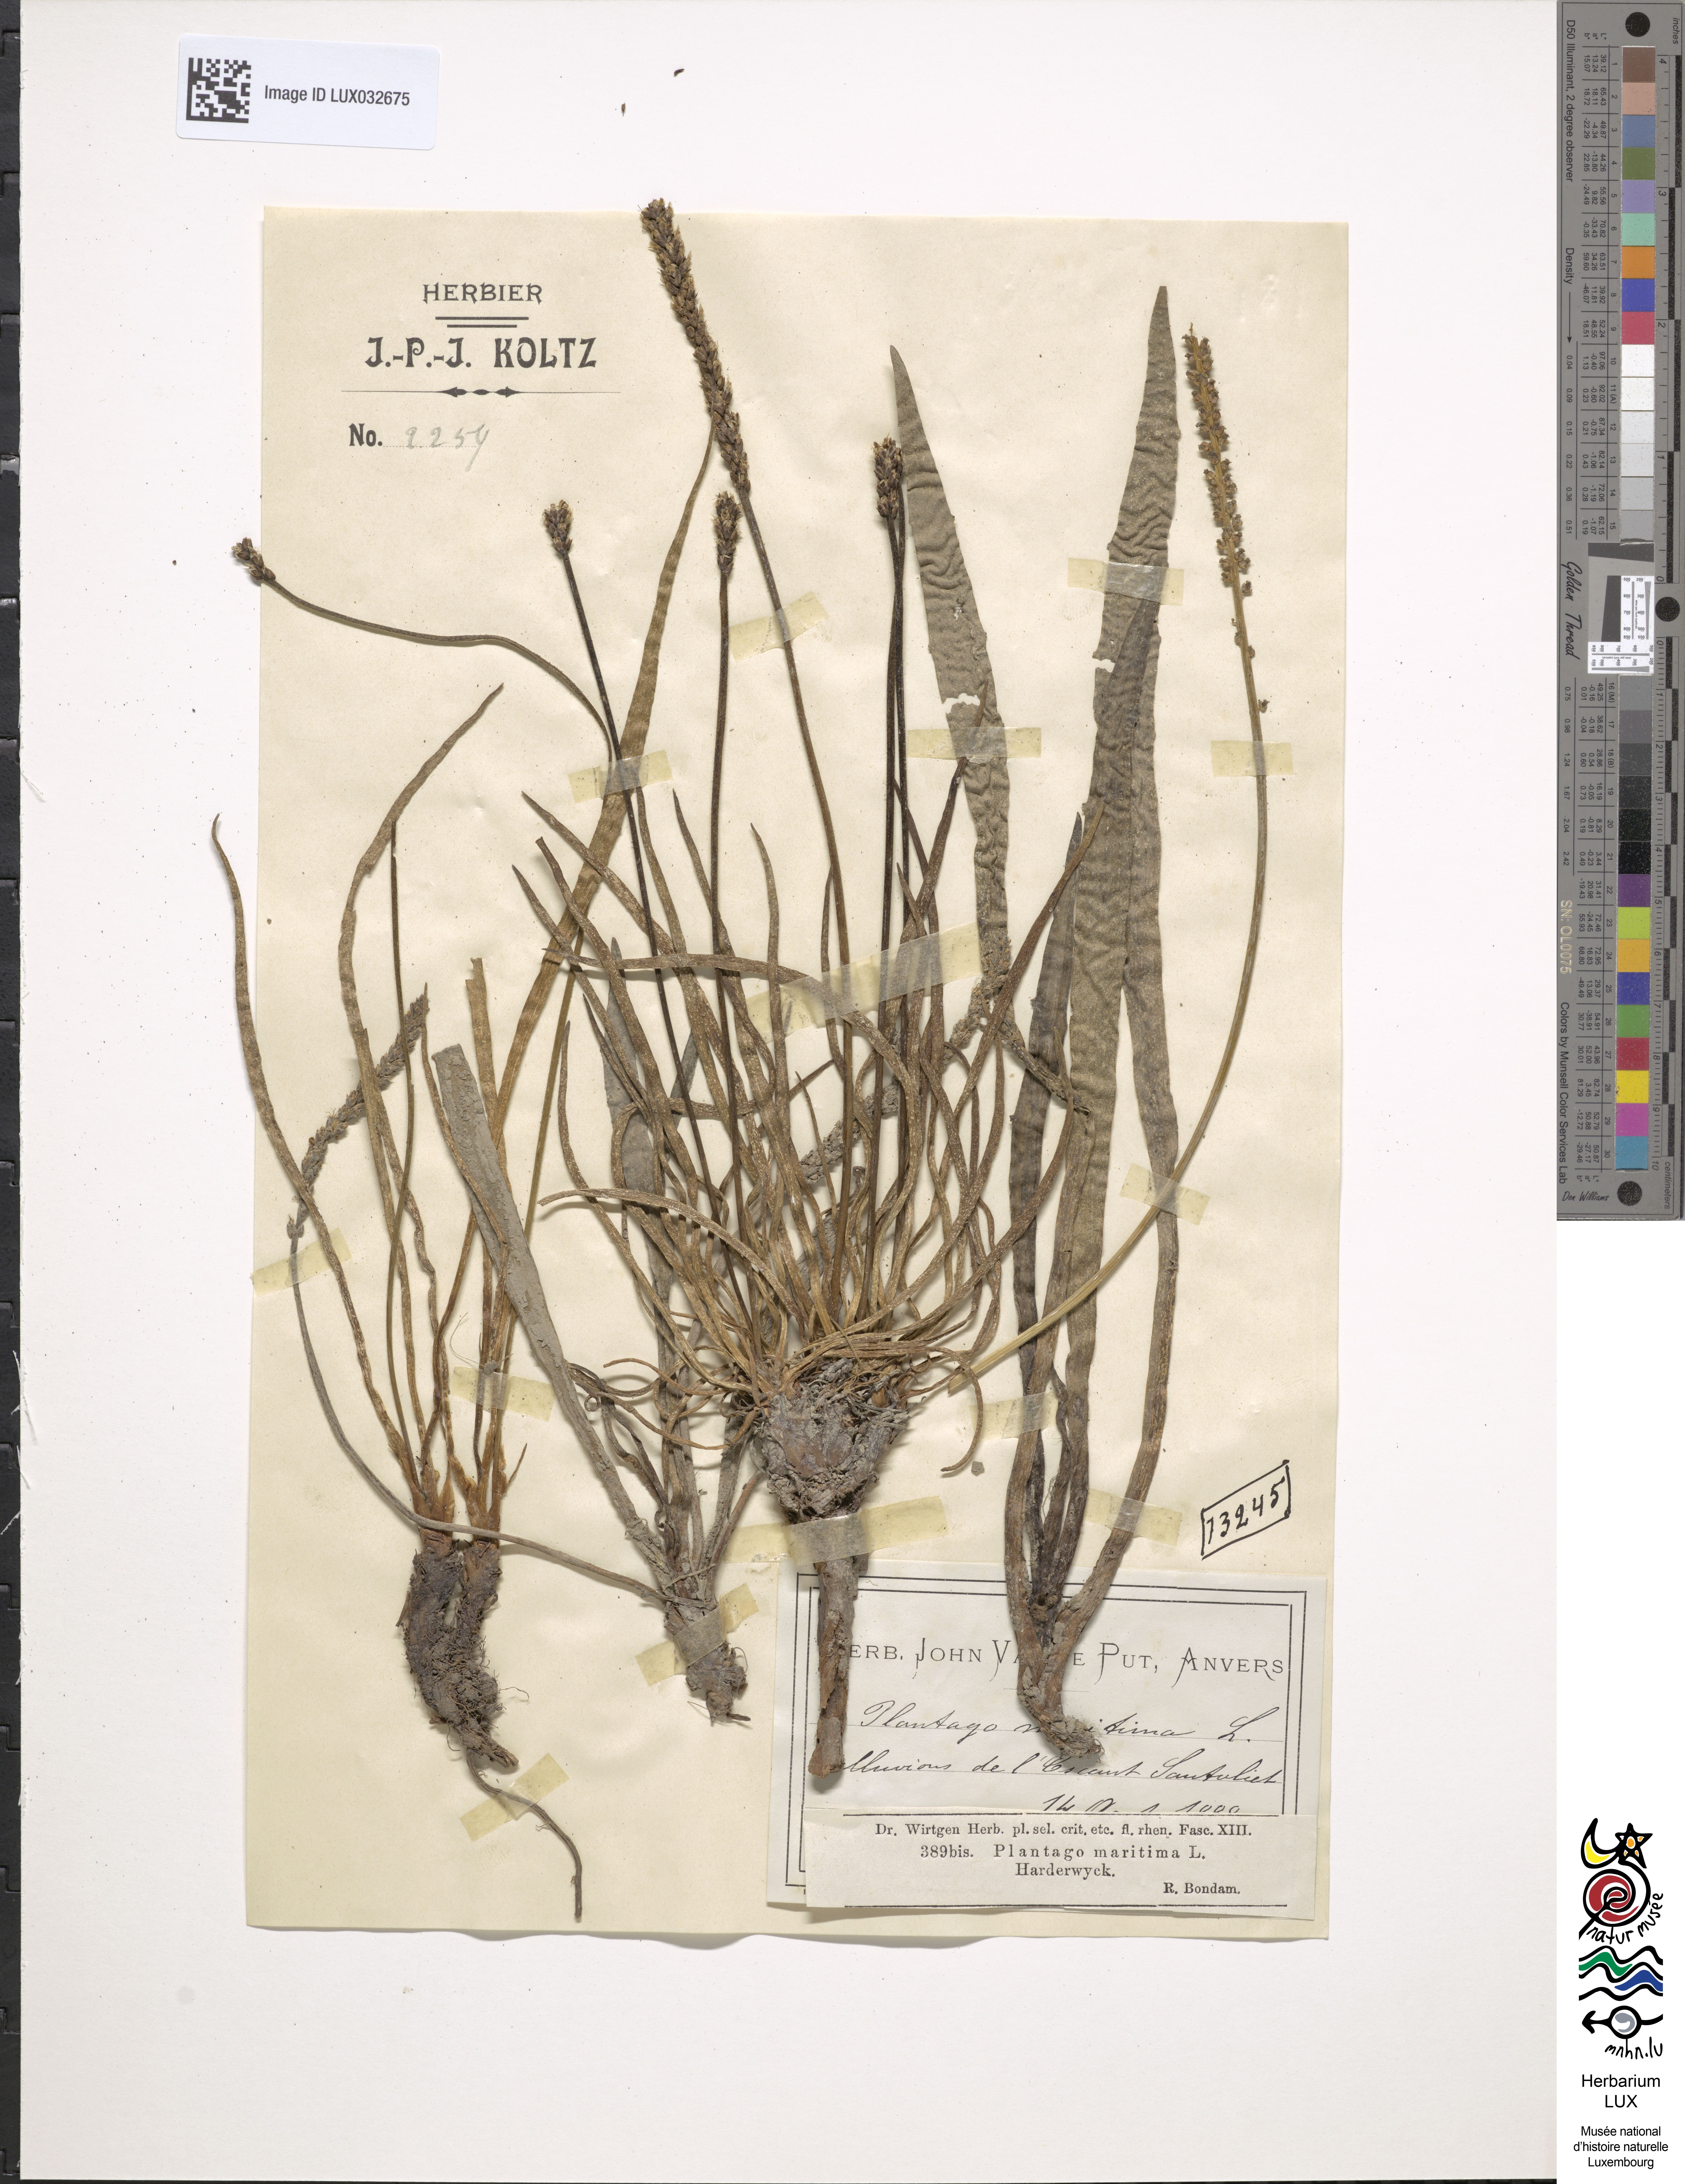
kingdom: Plantae
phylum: Tracheophyta
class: Magnoliopsida
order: Lamiales
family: Plantaginaceae
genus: Plantago
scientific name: Plantago maritima
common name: Sea plantain
